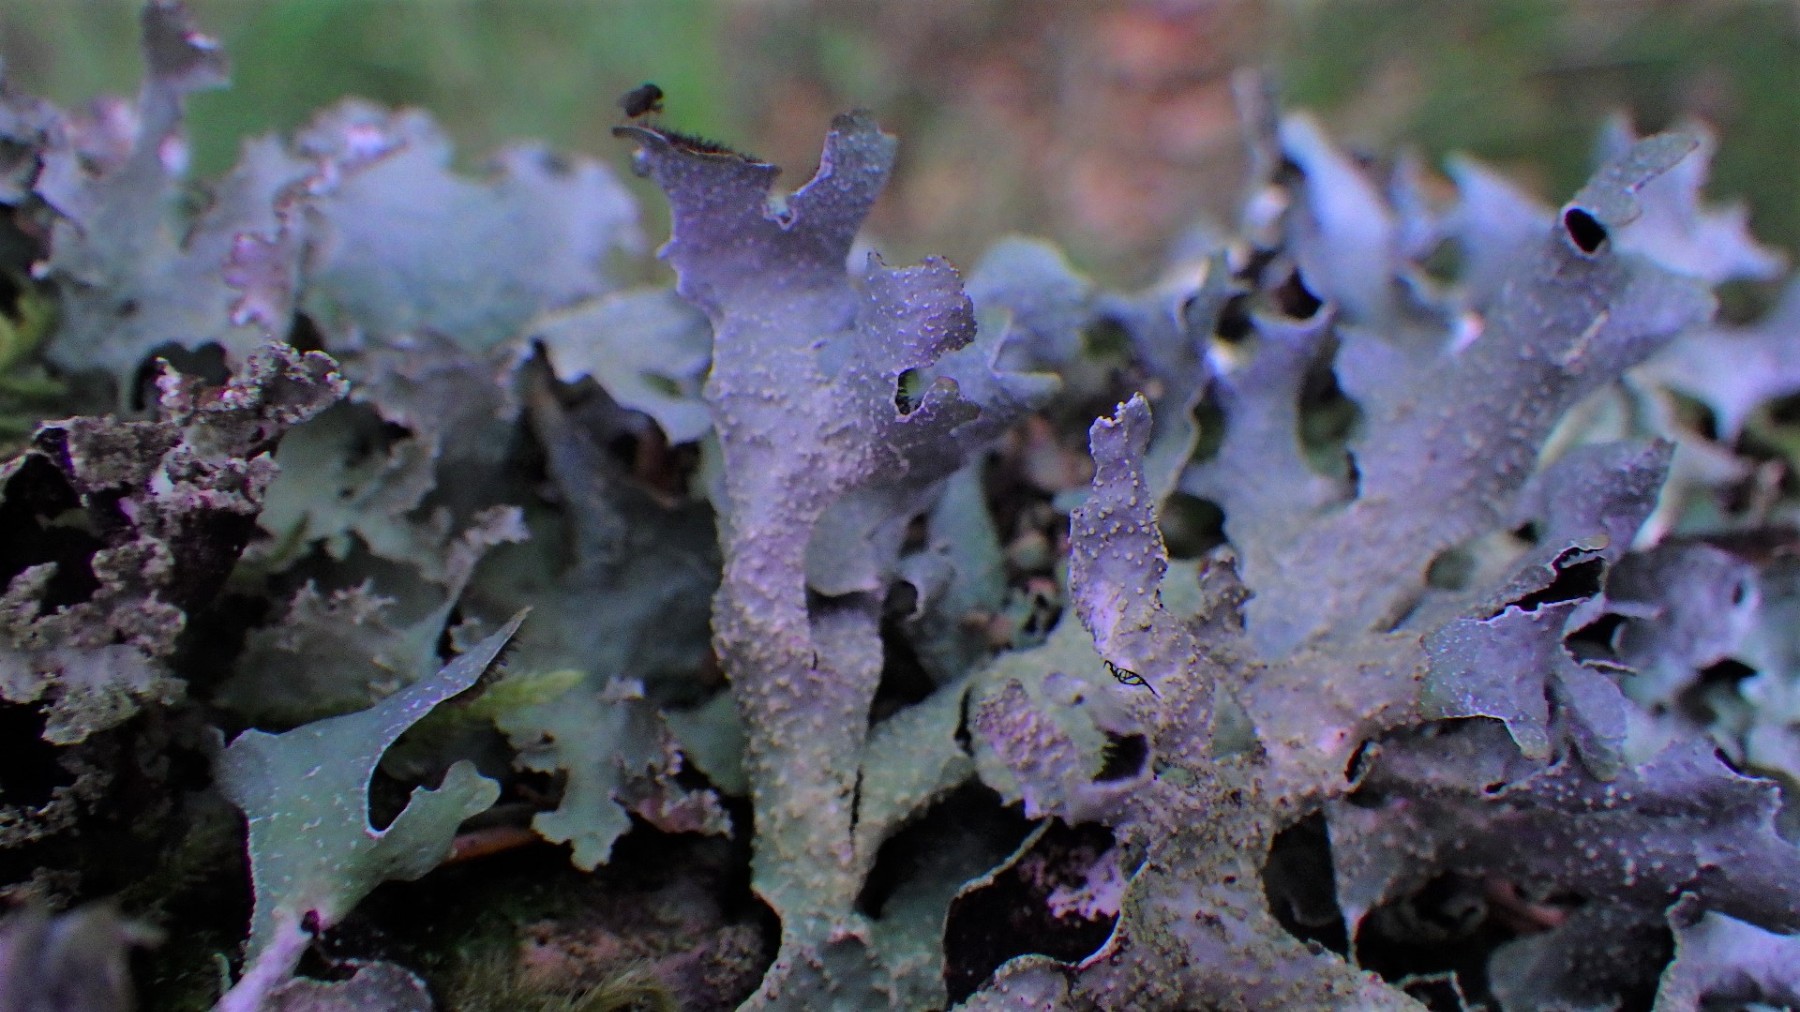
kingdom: Fungi
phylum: Ascomycota
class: Lecanoromycetes
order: Lecanorales
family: Parmeliaceae
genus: Parmelia
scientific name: Parmelia submontana
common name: langlobet skållav
